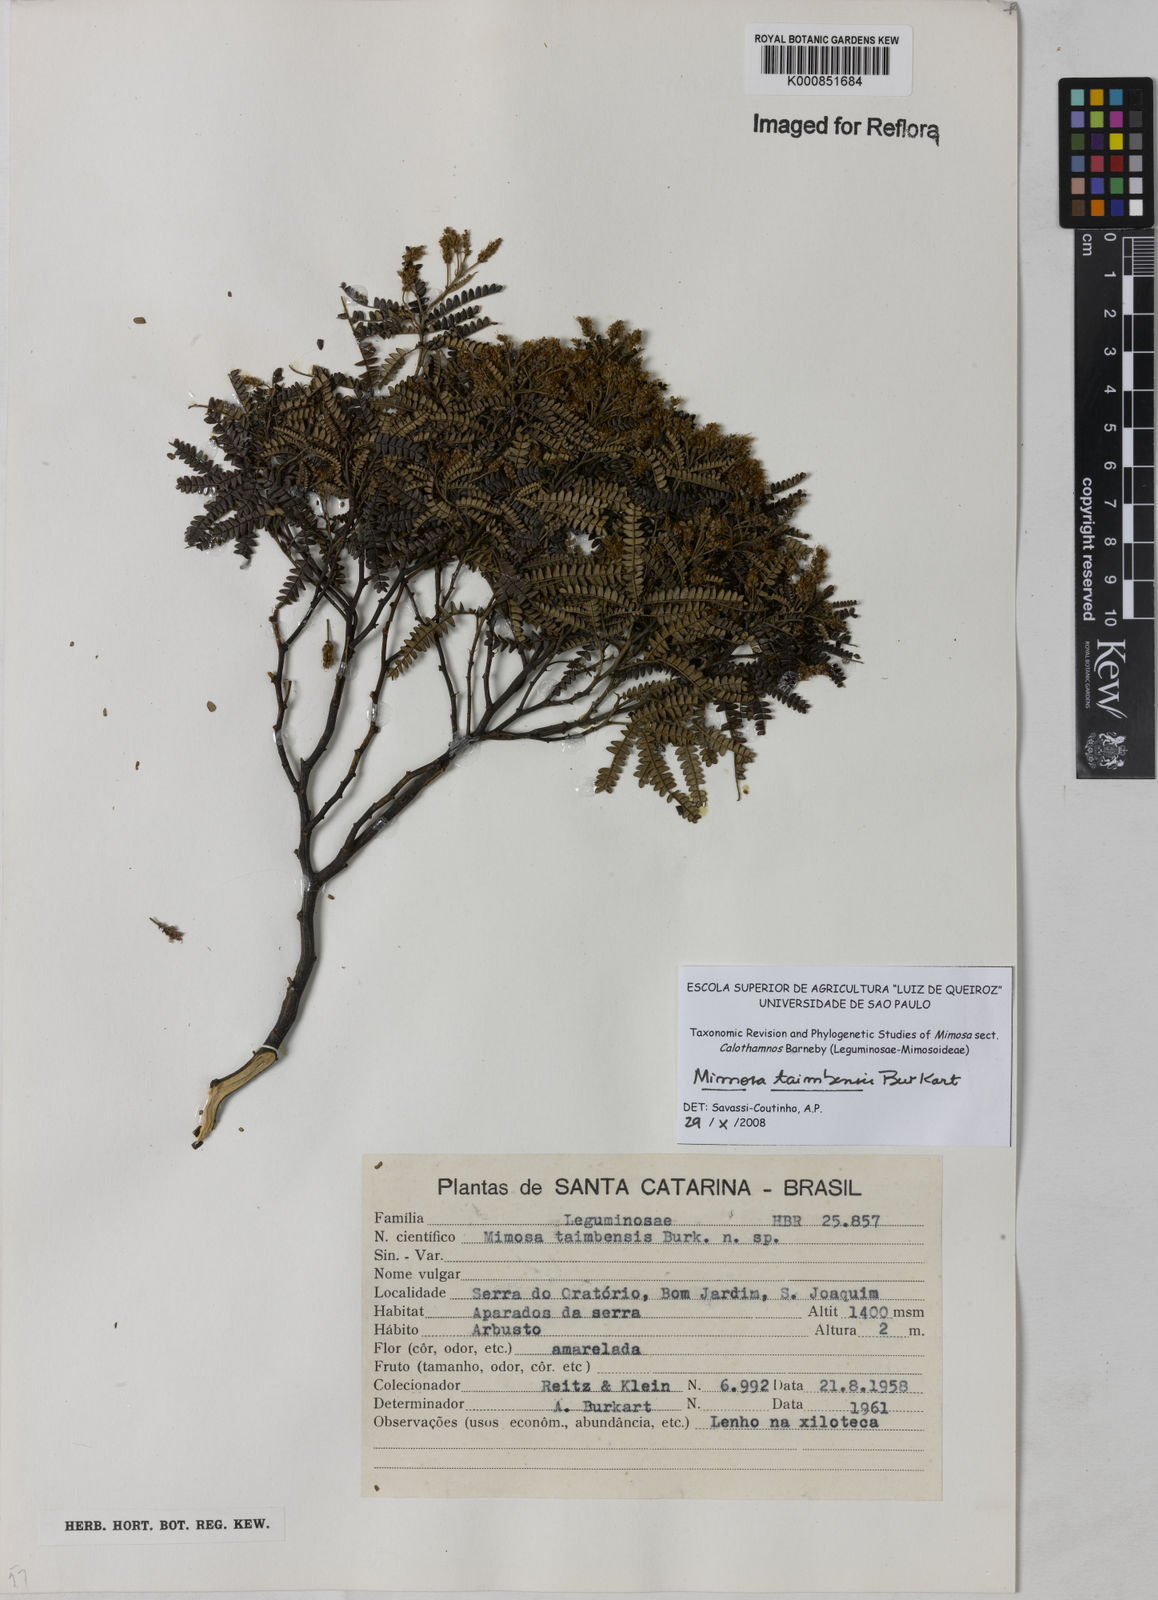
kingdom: Plantae
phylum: Tracheophyta
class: Magnoliopsida
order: Fabales
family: Fabaceae
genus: Mimosa
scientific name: Mimosa taimbensis
